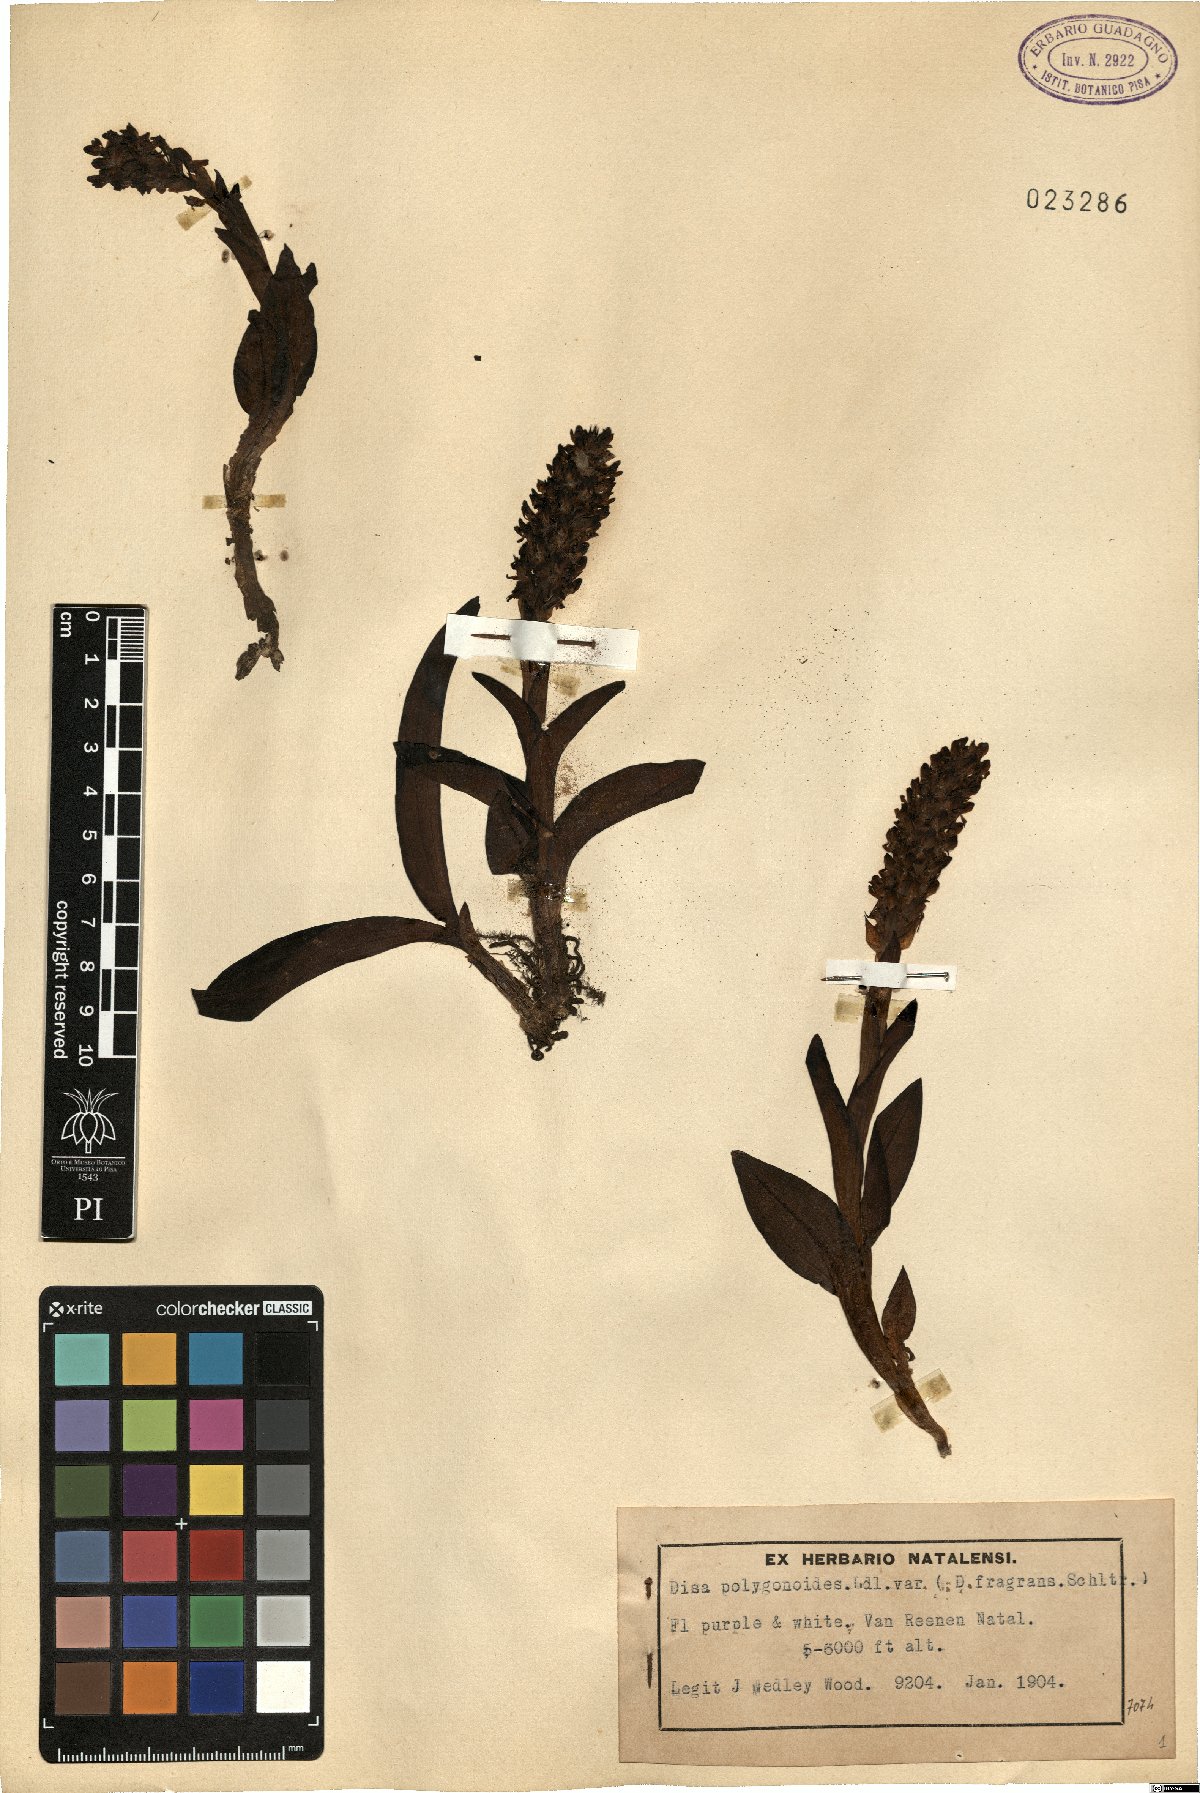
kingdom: Plantae
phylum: Tracheophyta
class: Liliopsida
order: Asparagales
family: Orchidaceae
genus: Disa
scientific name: Disa polygonoides
